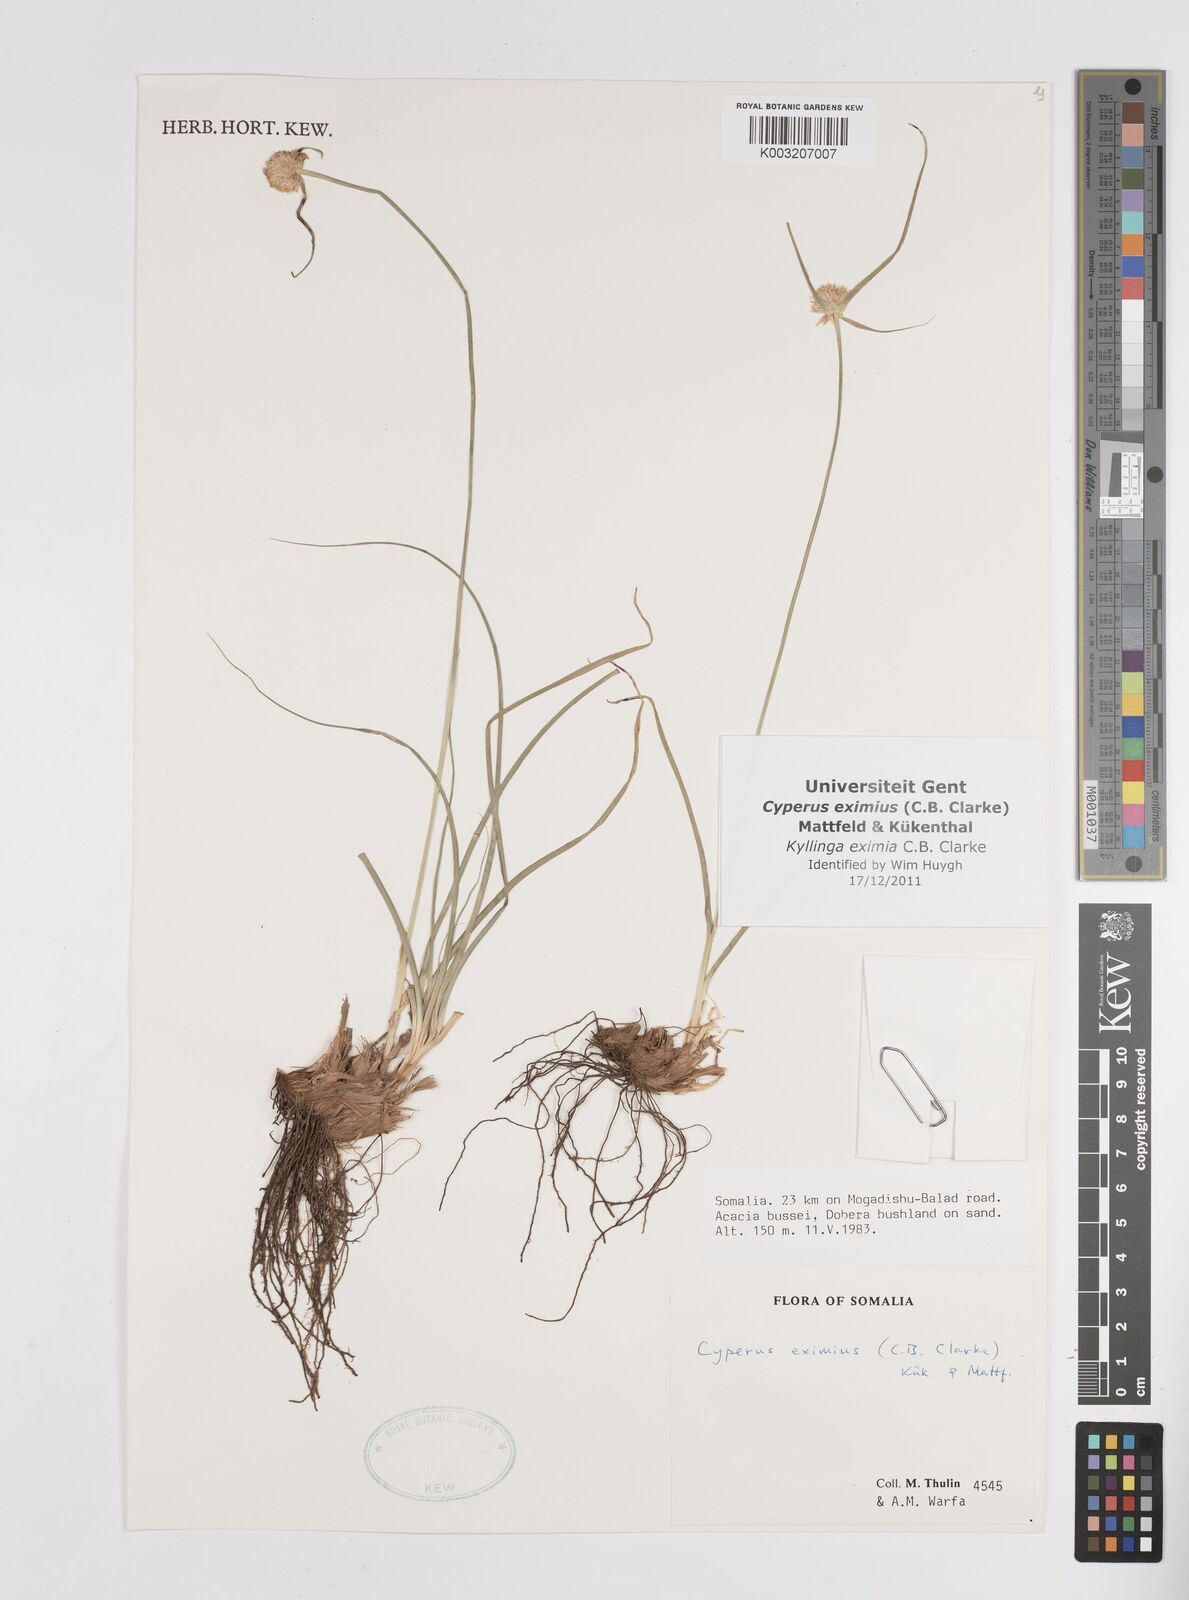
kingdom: Plantae
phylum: Tracheophyta
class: Liliopsida
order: Poales
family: Cyperaceae
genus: Cyperus
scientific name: Cyperus eximius
